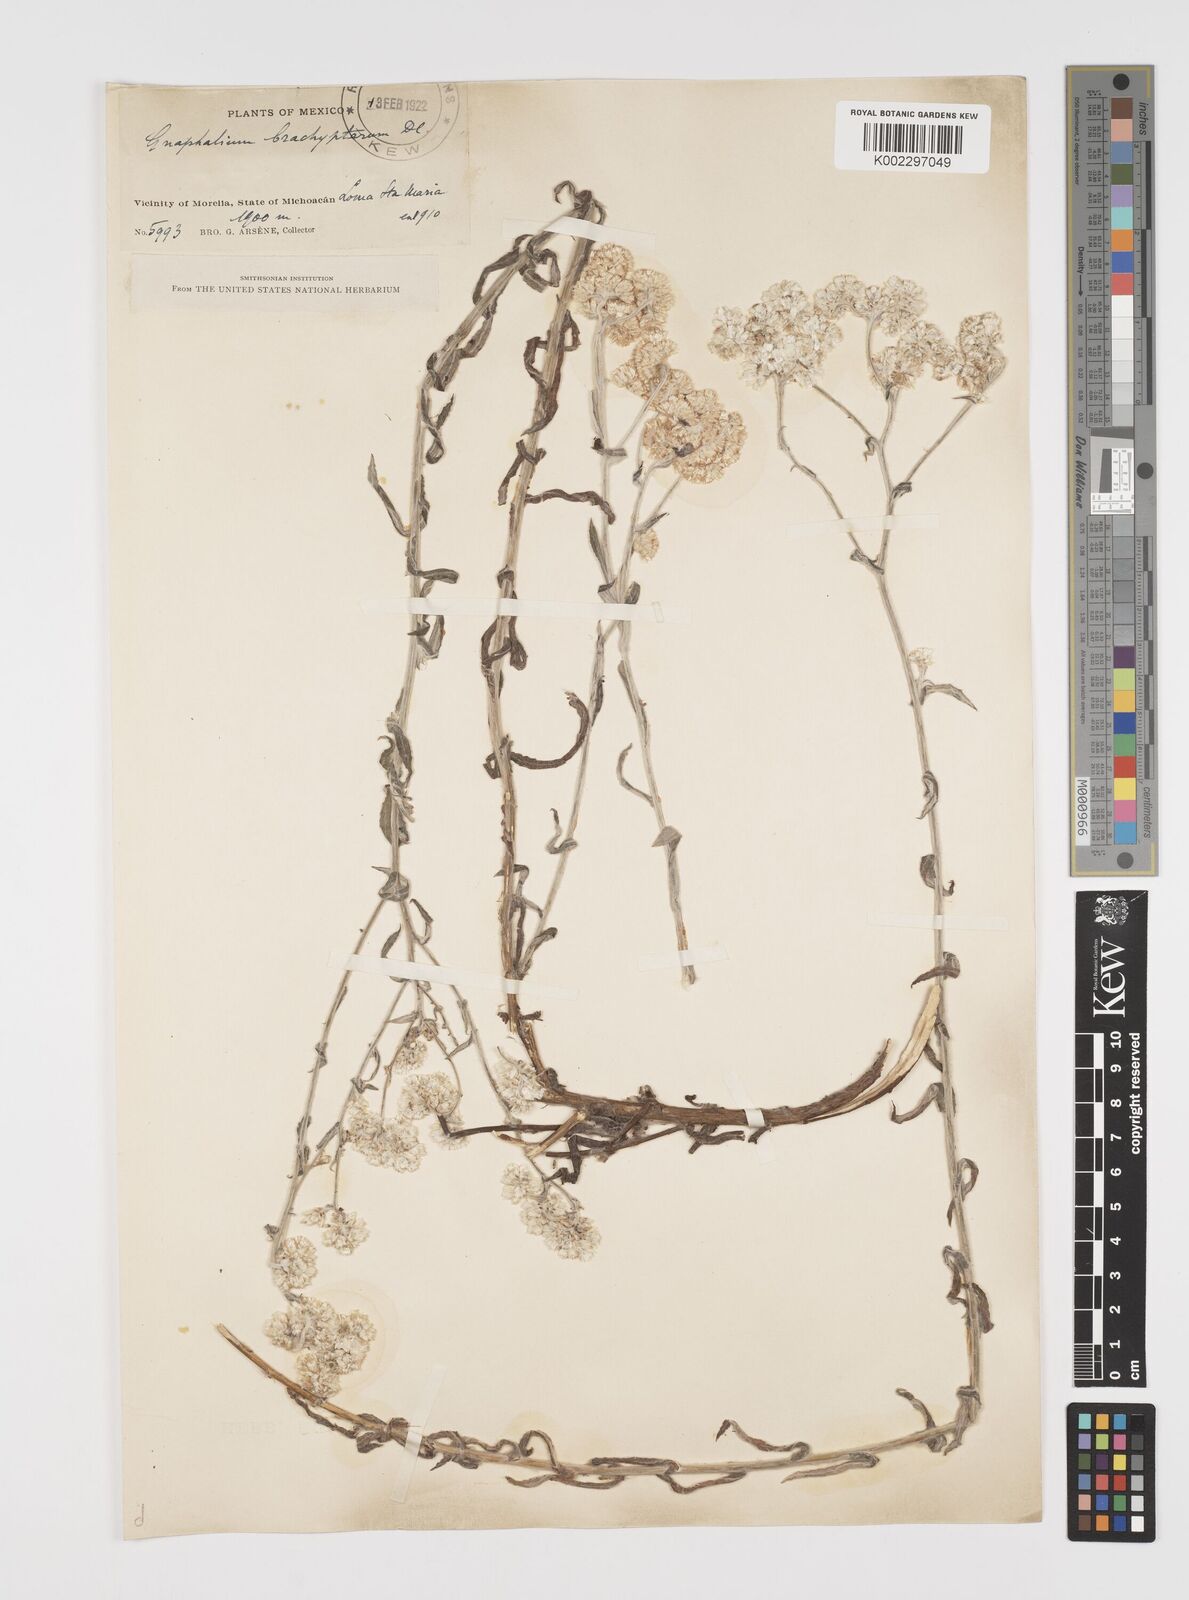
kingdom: Plantae
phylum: Tracheophyta
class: Magnoliopsida
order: Asterales
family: Asteraceae
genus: Pseudognaphalium
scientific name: Pseudognaphalium brachypterum
